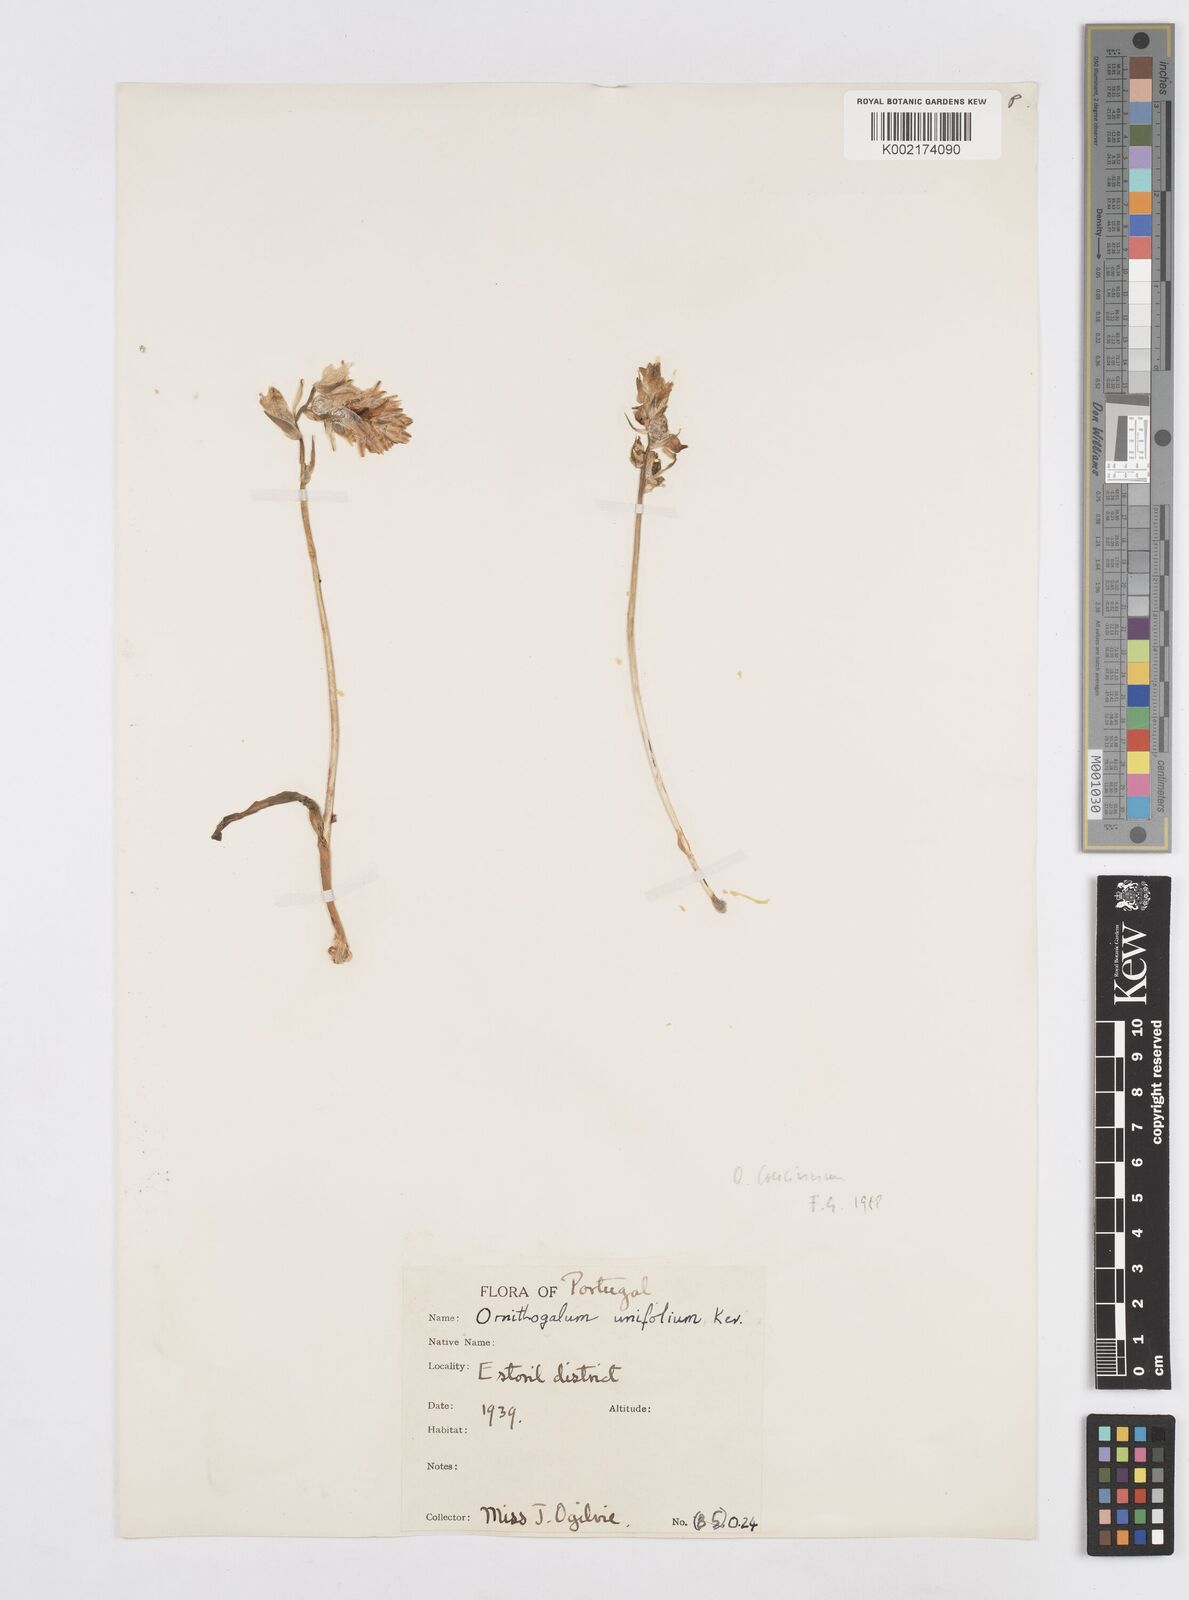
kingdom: Plantae
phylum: Tracheophyta
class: Liliopsida
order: Asparagales
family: Asparagaceae
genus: Ornithogalum
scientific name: Ornithogalum concinnum
